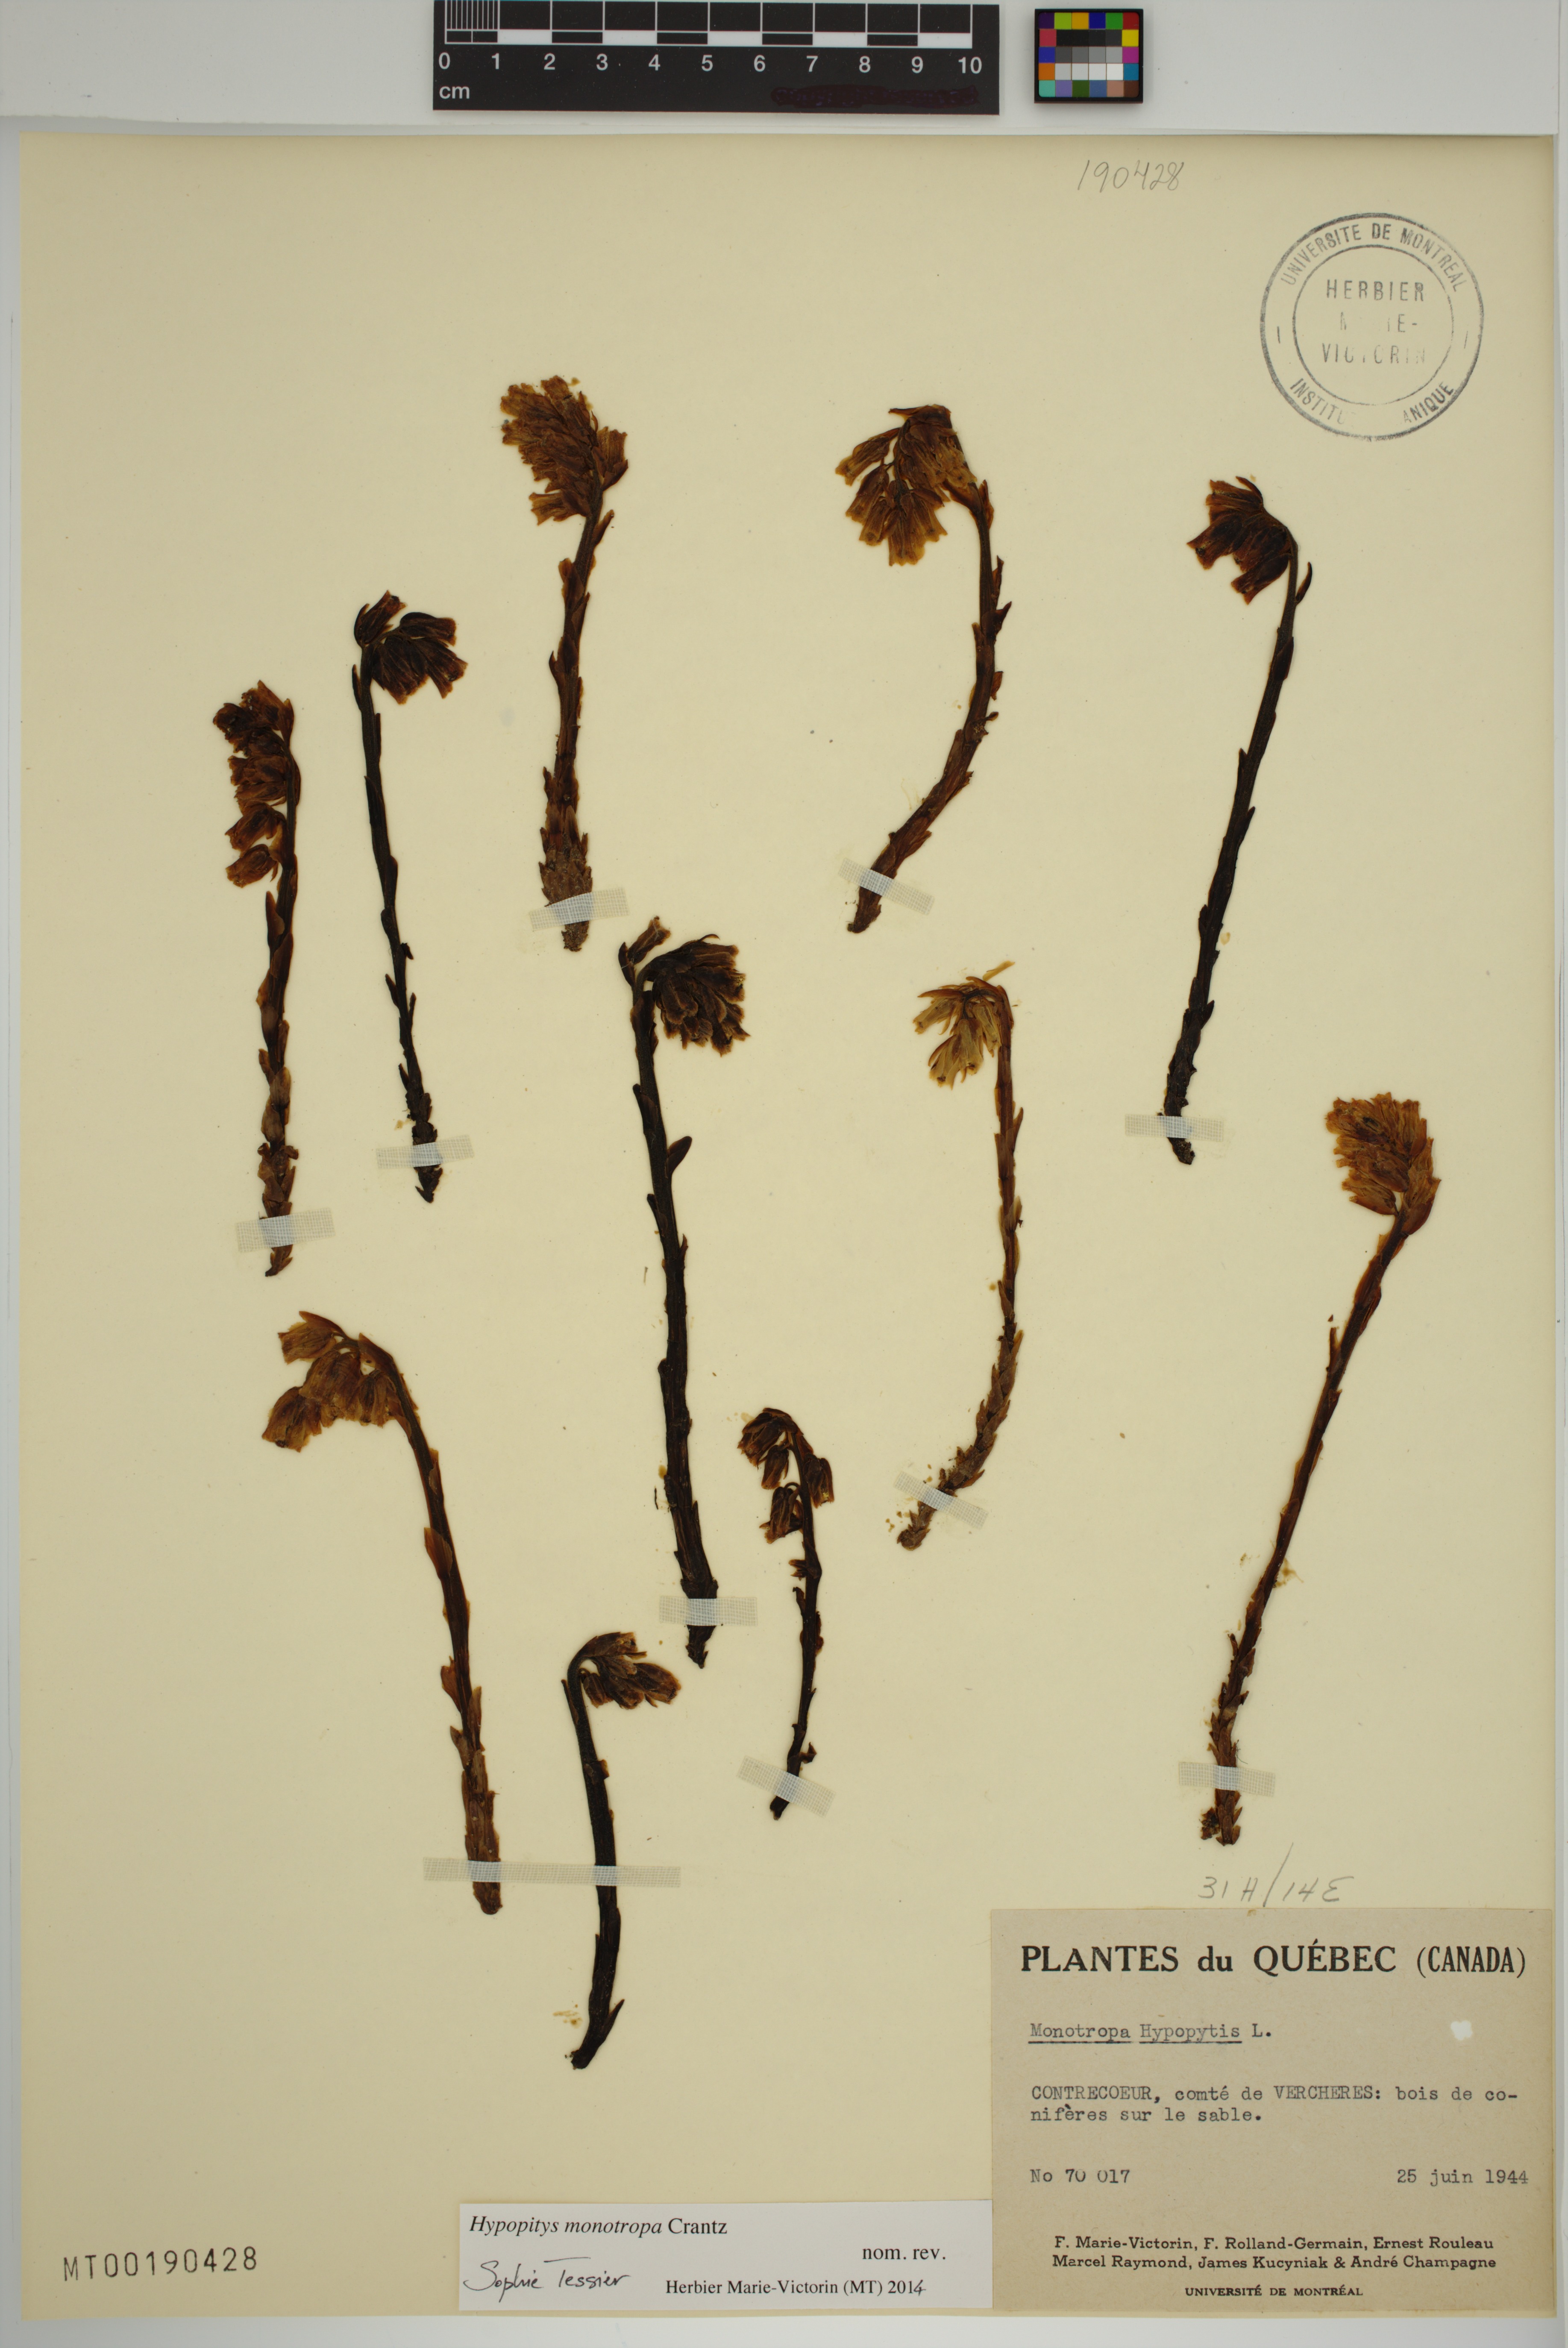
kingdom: Plantae
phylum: Tracheophyta
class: Magnoliopsida
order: Ericales
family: Ericaceae
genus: Hypopitys
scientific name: Hypopitys monotropa
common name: Yellow bird's-nest
